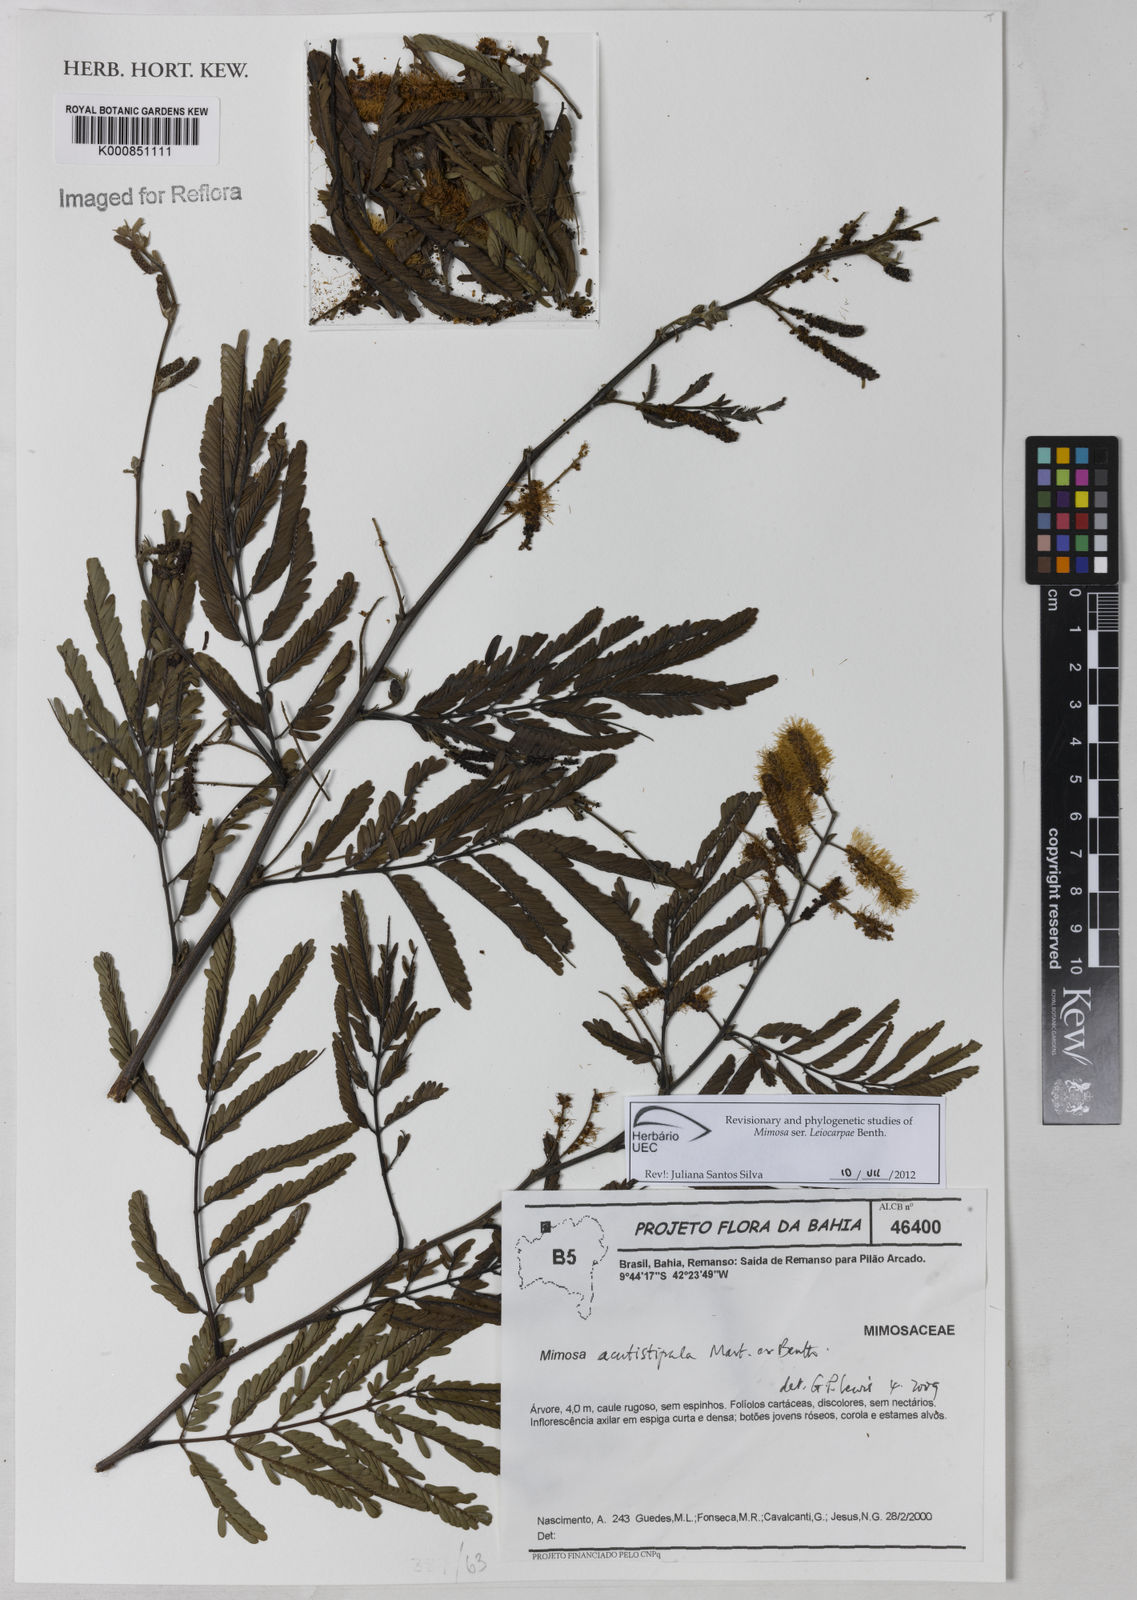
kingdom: Plantae
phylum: Tracheophyta
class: Magnoliopsida
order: Fabales
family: Fabaceae
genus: Mimosa
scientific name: Mimosa acutistipula
